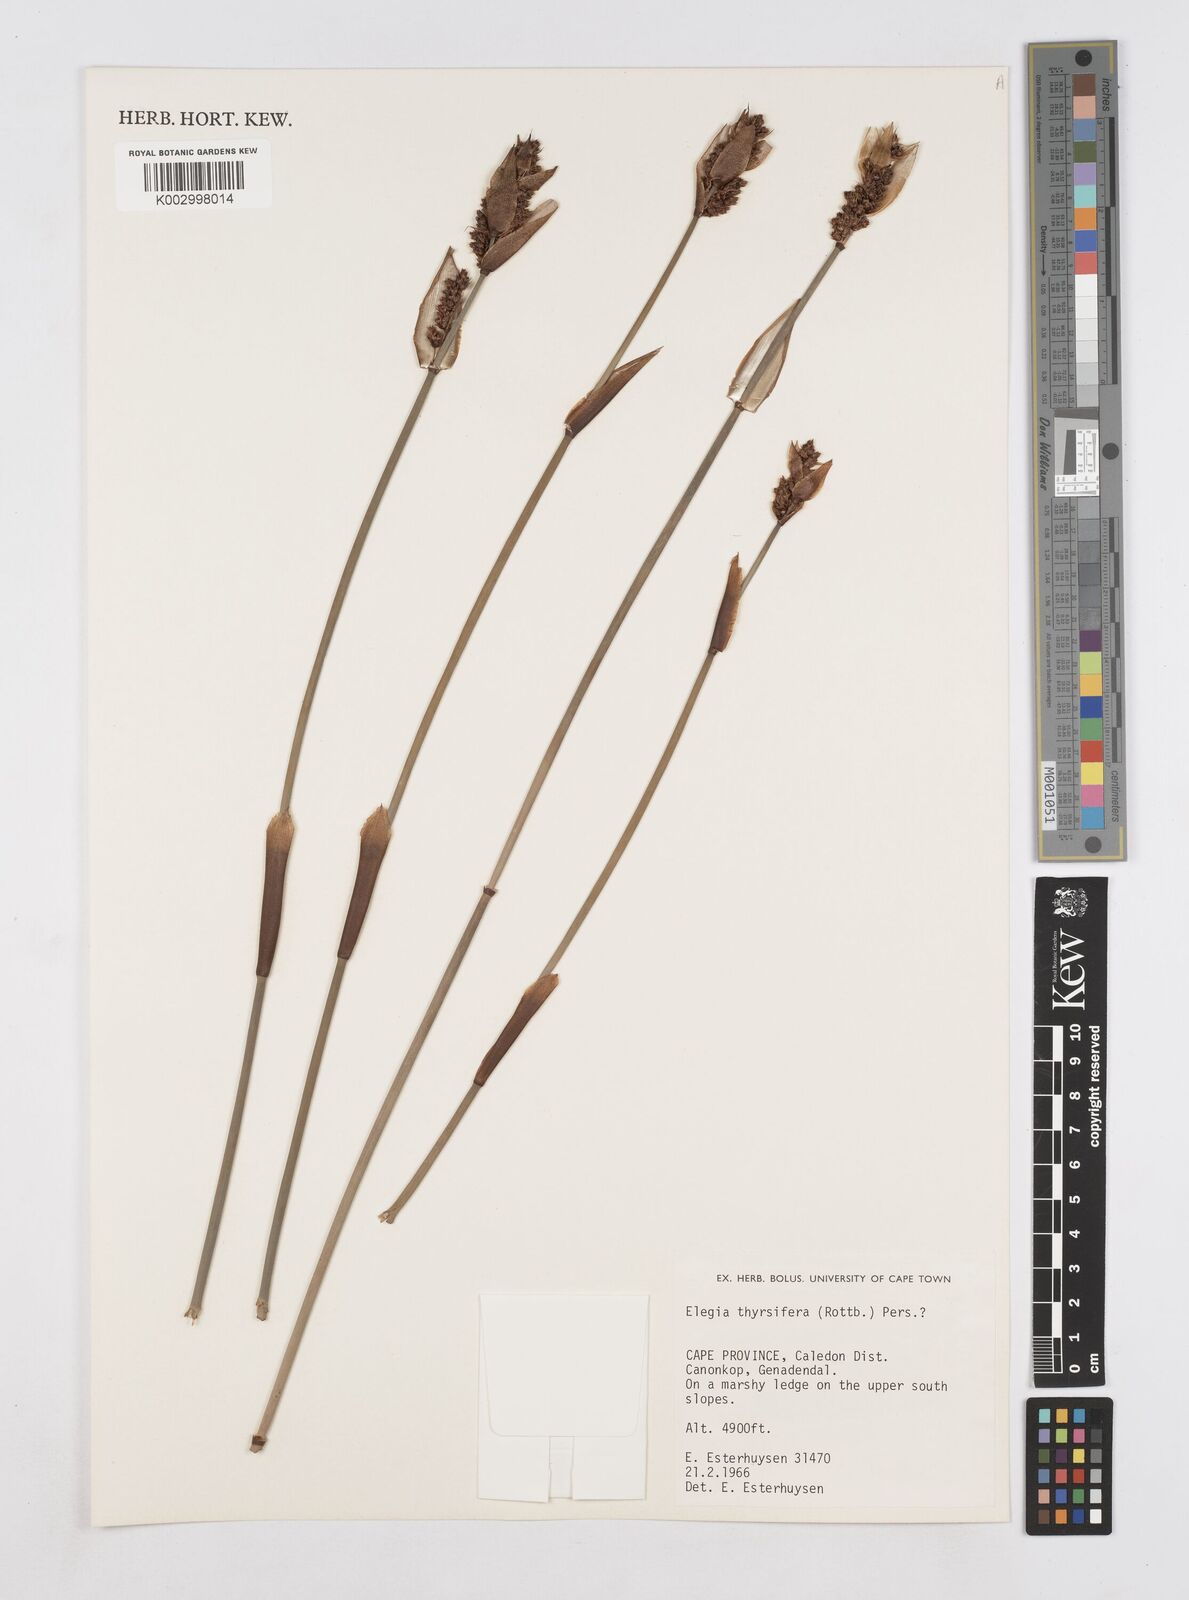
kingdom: Plantae
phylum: Tracheophyta
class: Liliopsida
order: Poales
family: Restionaceae
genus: Elegia
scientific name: Elegia thyrsifera
